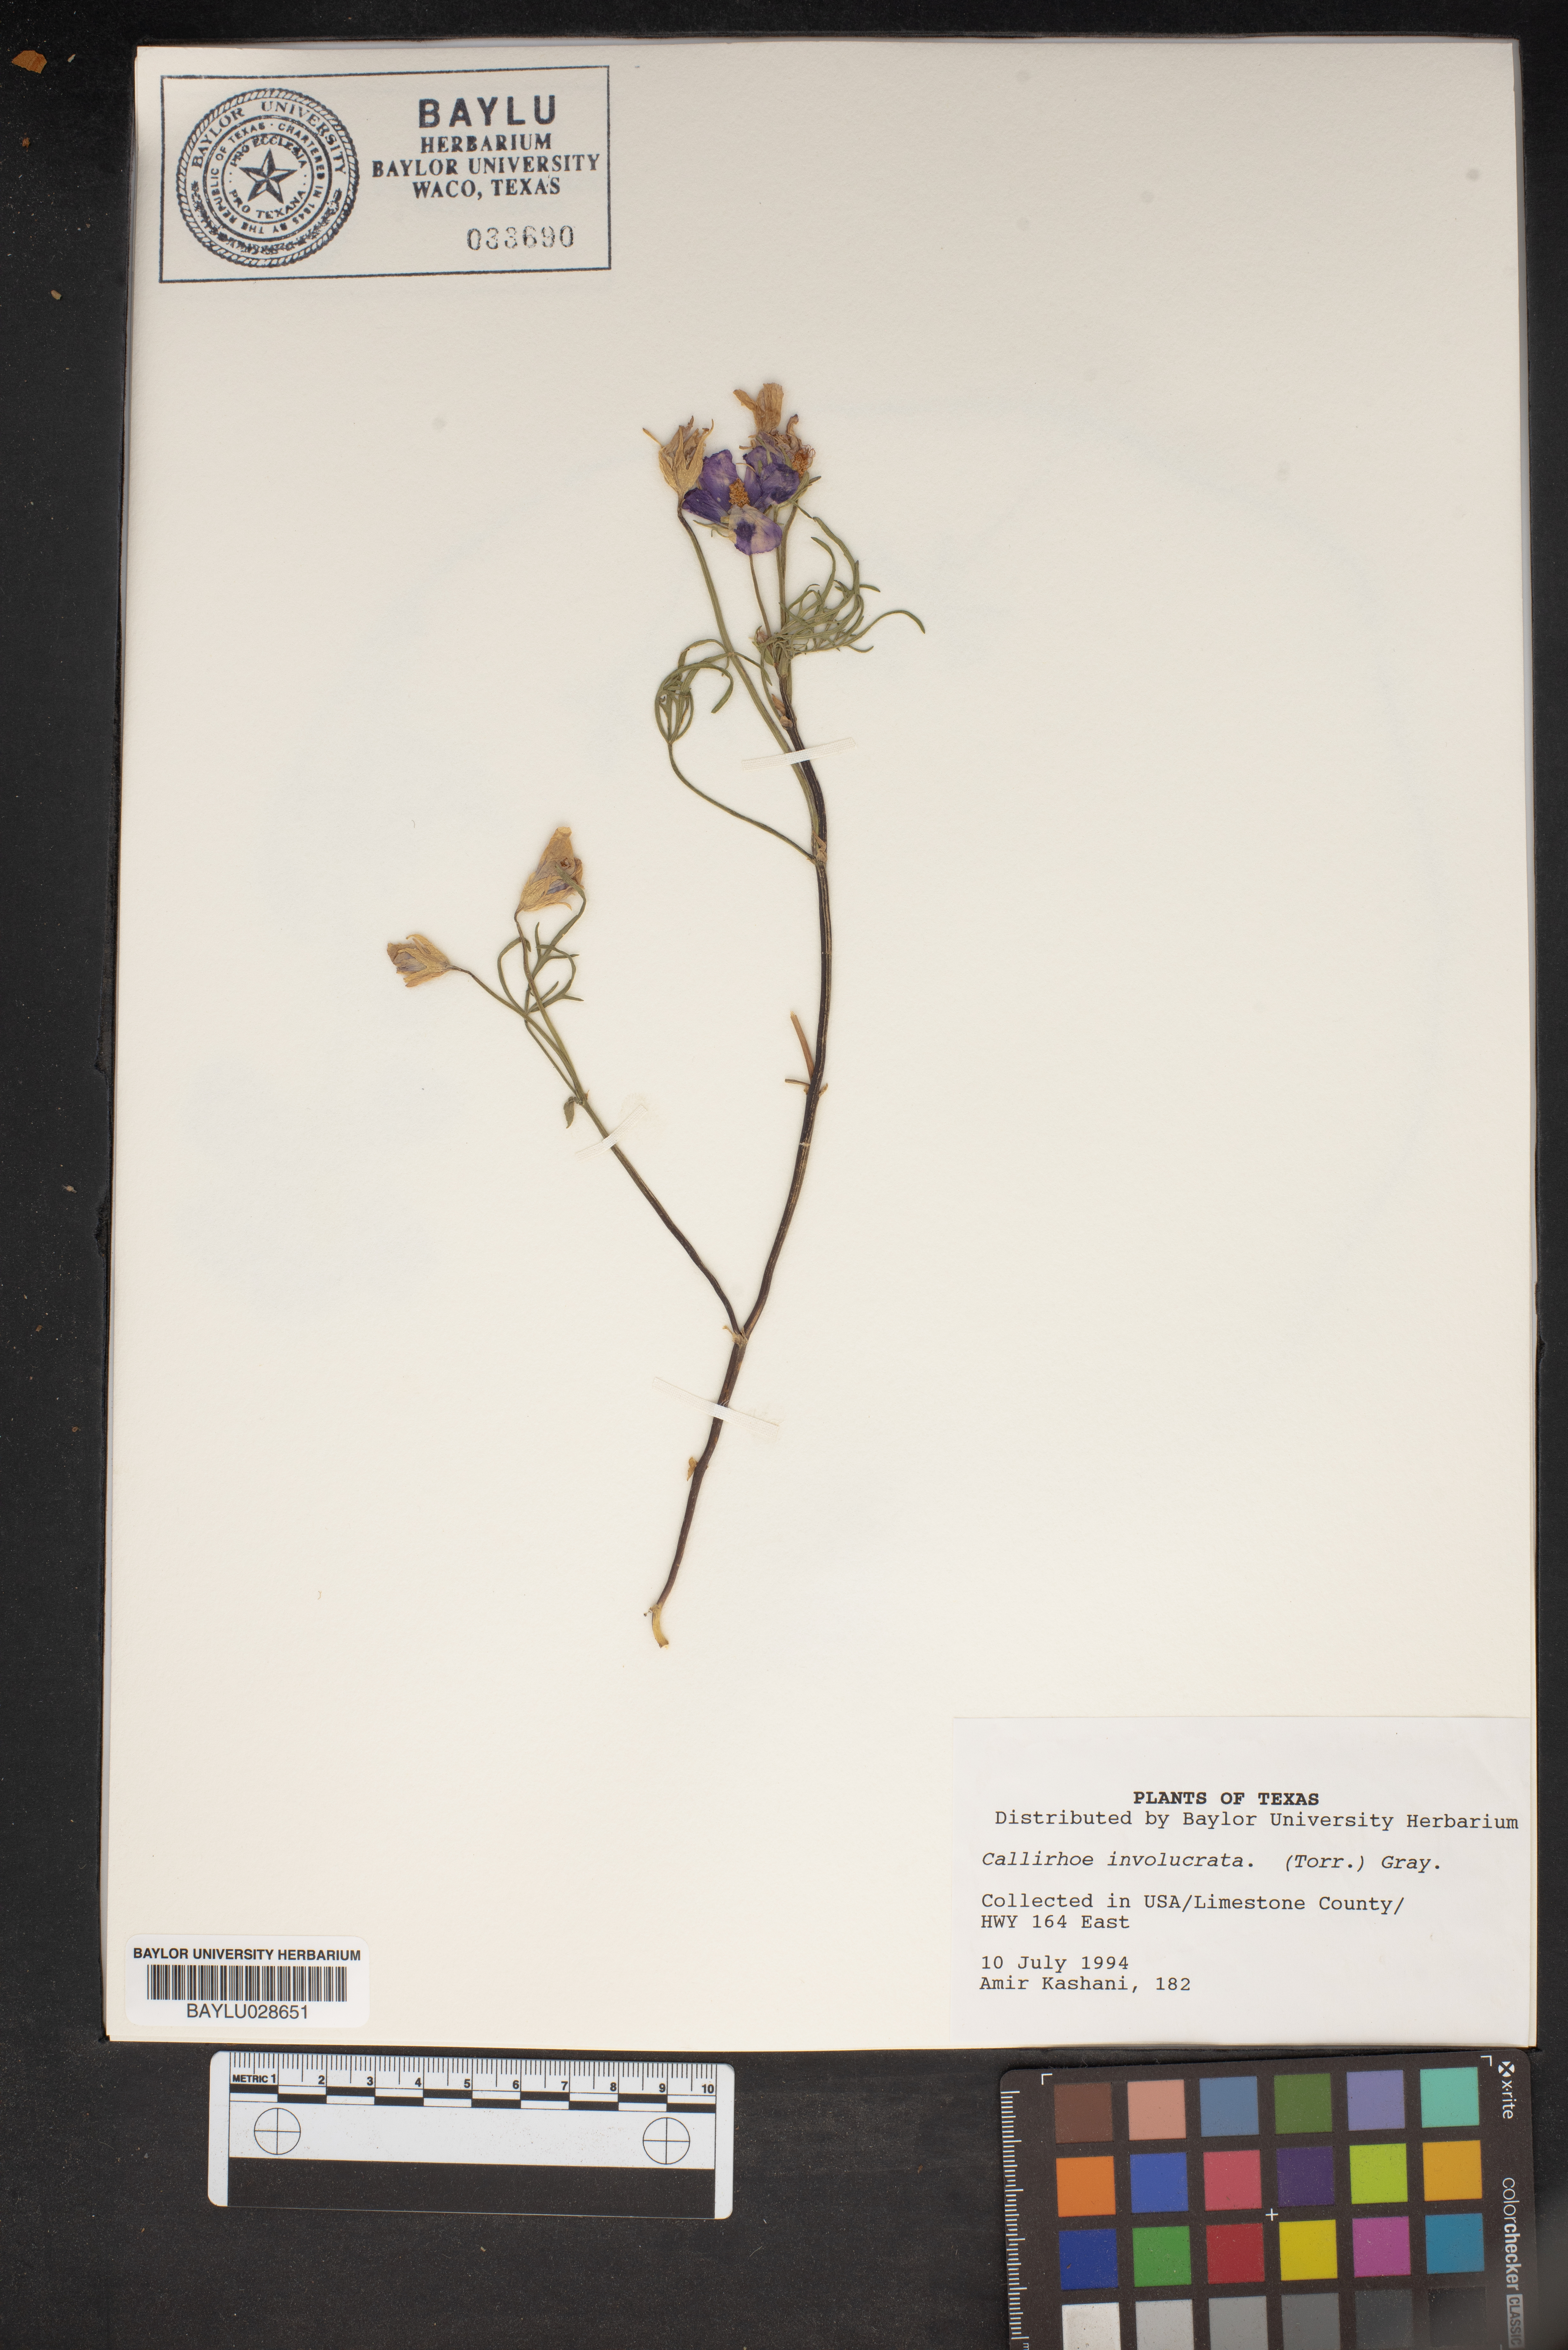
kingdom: Plantae
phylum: Tracheophyta
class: Magnoliopsida
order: Malvales
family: Malvaceae
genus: Callirhoe
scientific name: Callirhoe involucrata
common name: Purple poppy-mallow
